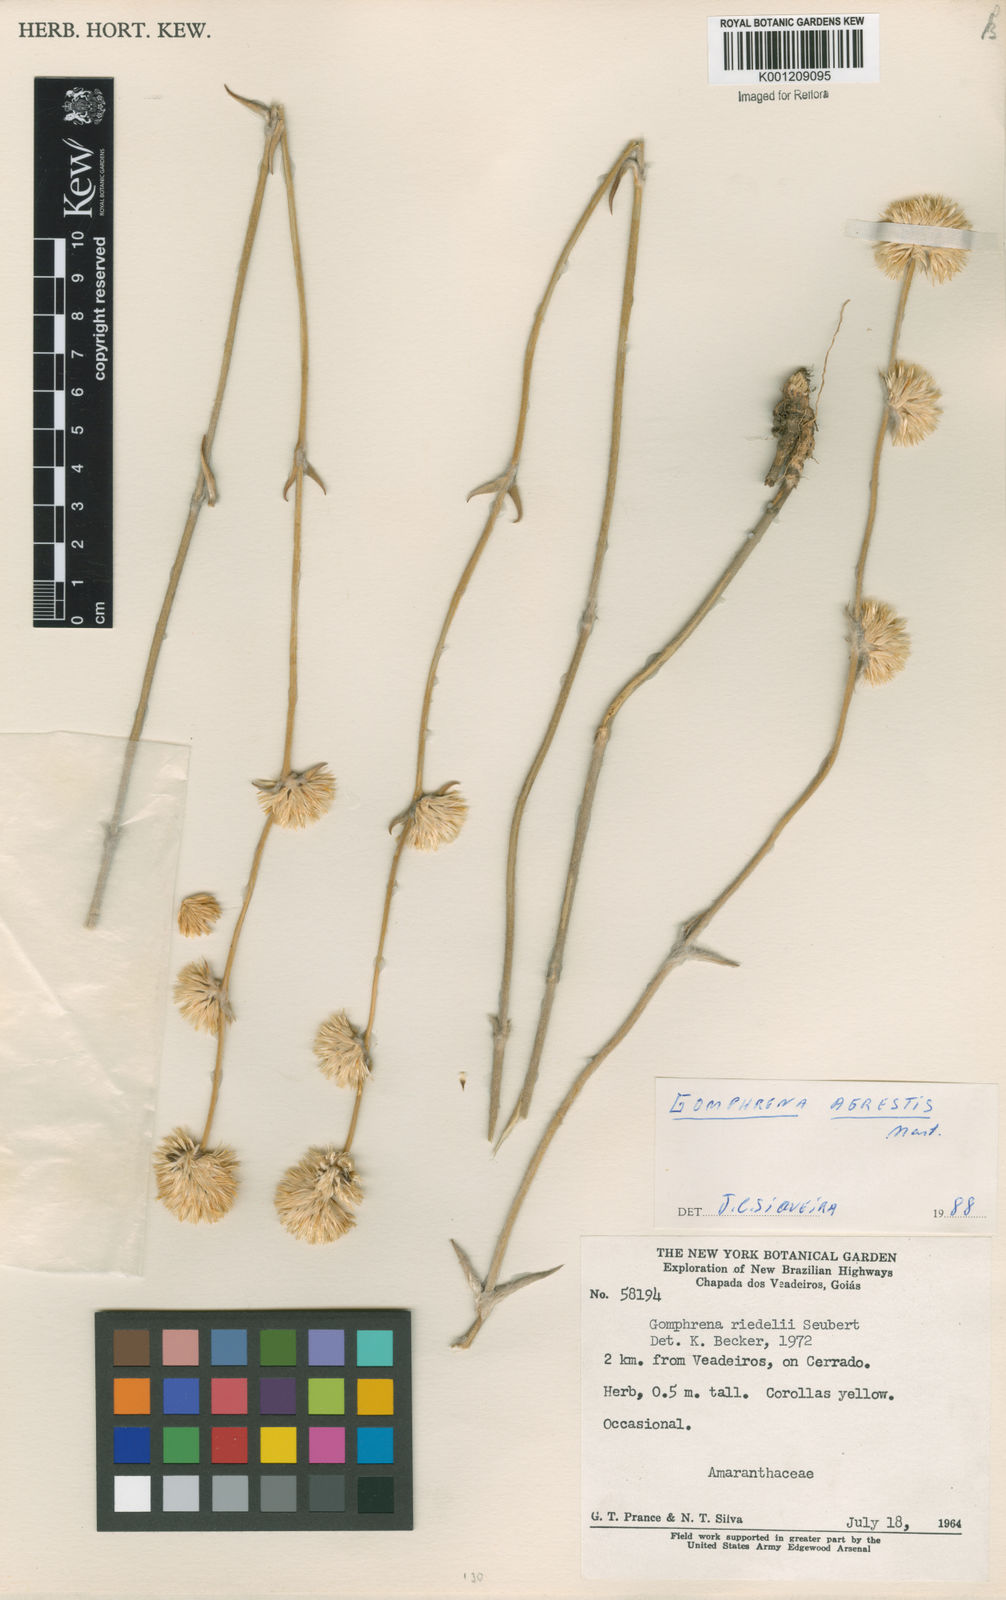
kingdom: Plantae
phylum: Tracheophyta
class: Magnoliopsida
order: Caryophyllales
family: Amaranthaceae
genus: Gomphrena
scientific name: Gomphrena riedelii
